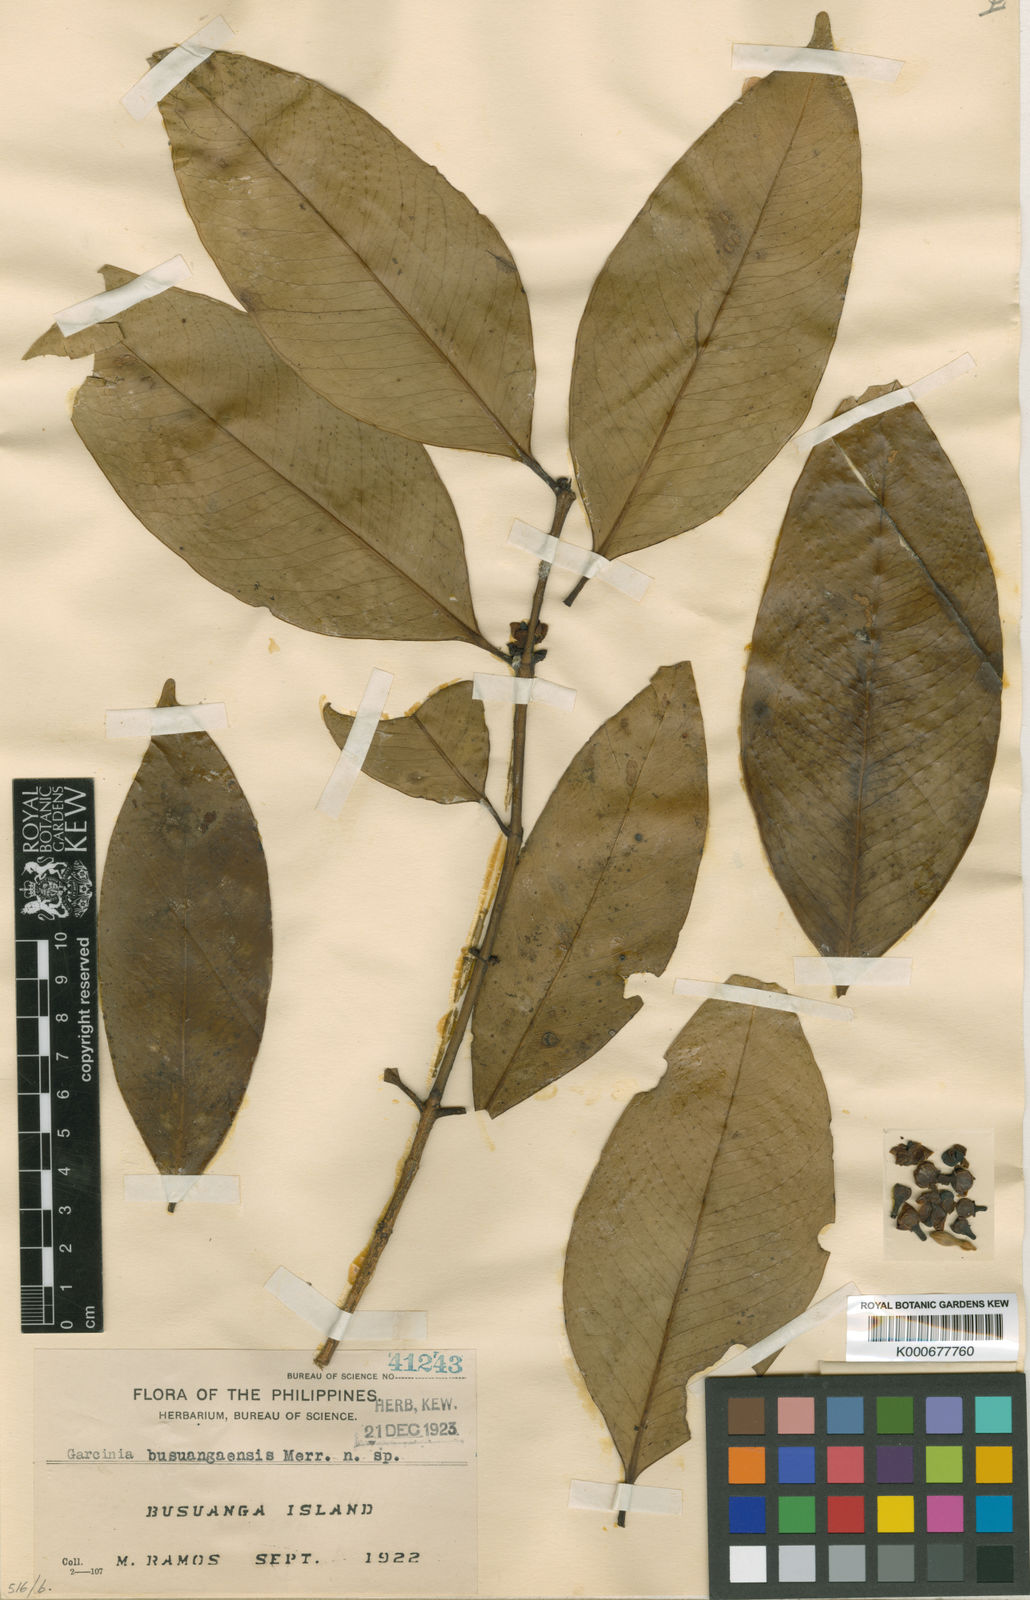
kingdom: Plantae
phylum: Tracheophyta
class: Magnoliopsida
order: Malpighiales
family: Clusiaceae
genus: Garcinia
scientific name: Garcinia busuangaensis
